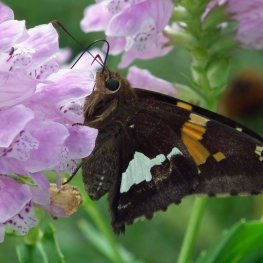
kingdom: Animalia
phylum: Arthropoda
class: Insecta
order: Lepidoptera
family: Hesperiidae
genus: Epargyreus
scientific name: Epargyreus clarus
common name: Silver-spotted Skipper
